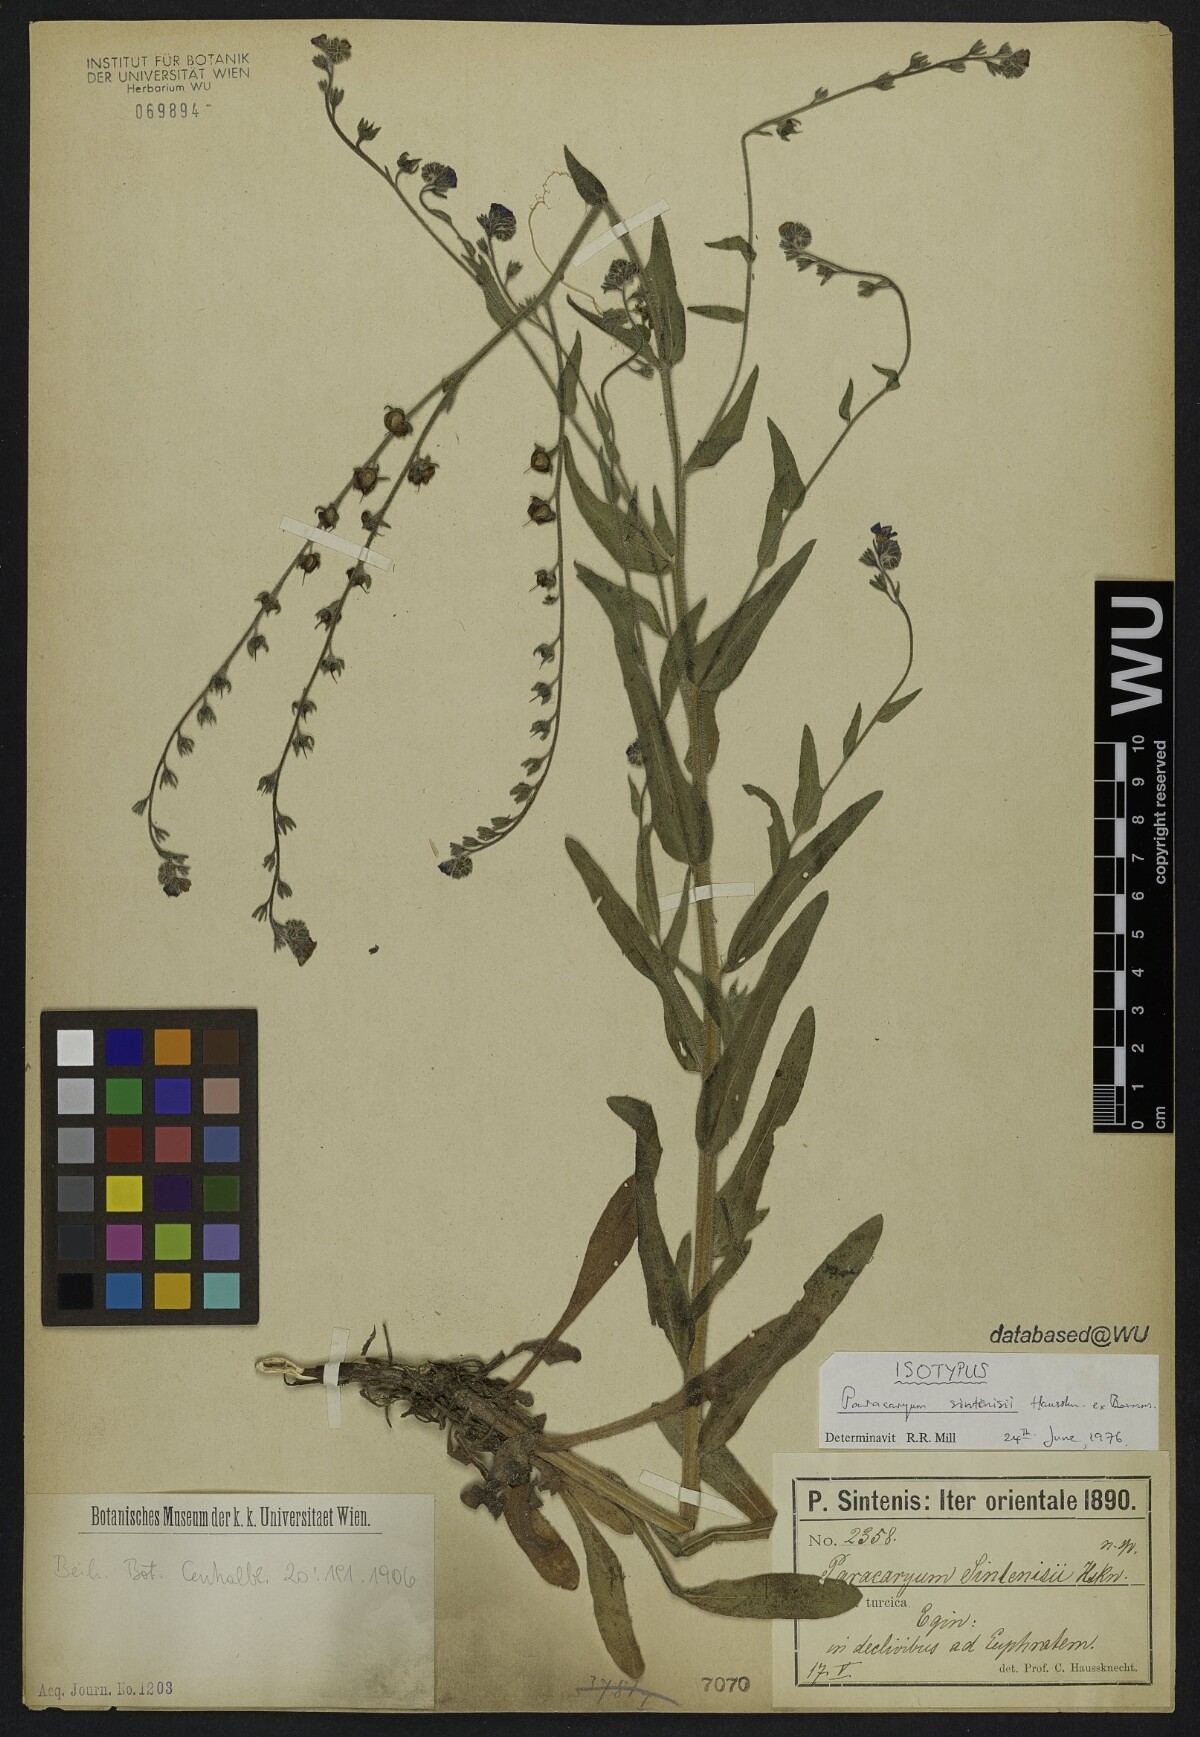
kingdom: Plantae
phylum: Tracheophyta
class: Magnoliopsida
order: Boraginales
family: Boraginaceae
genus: Paracaryum
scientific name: Paracaryum sintenisii
